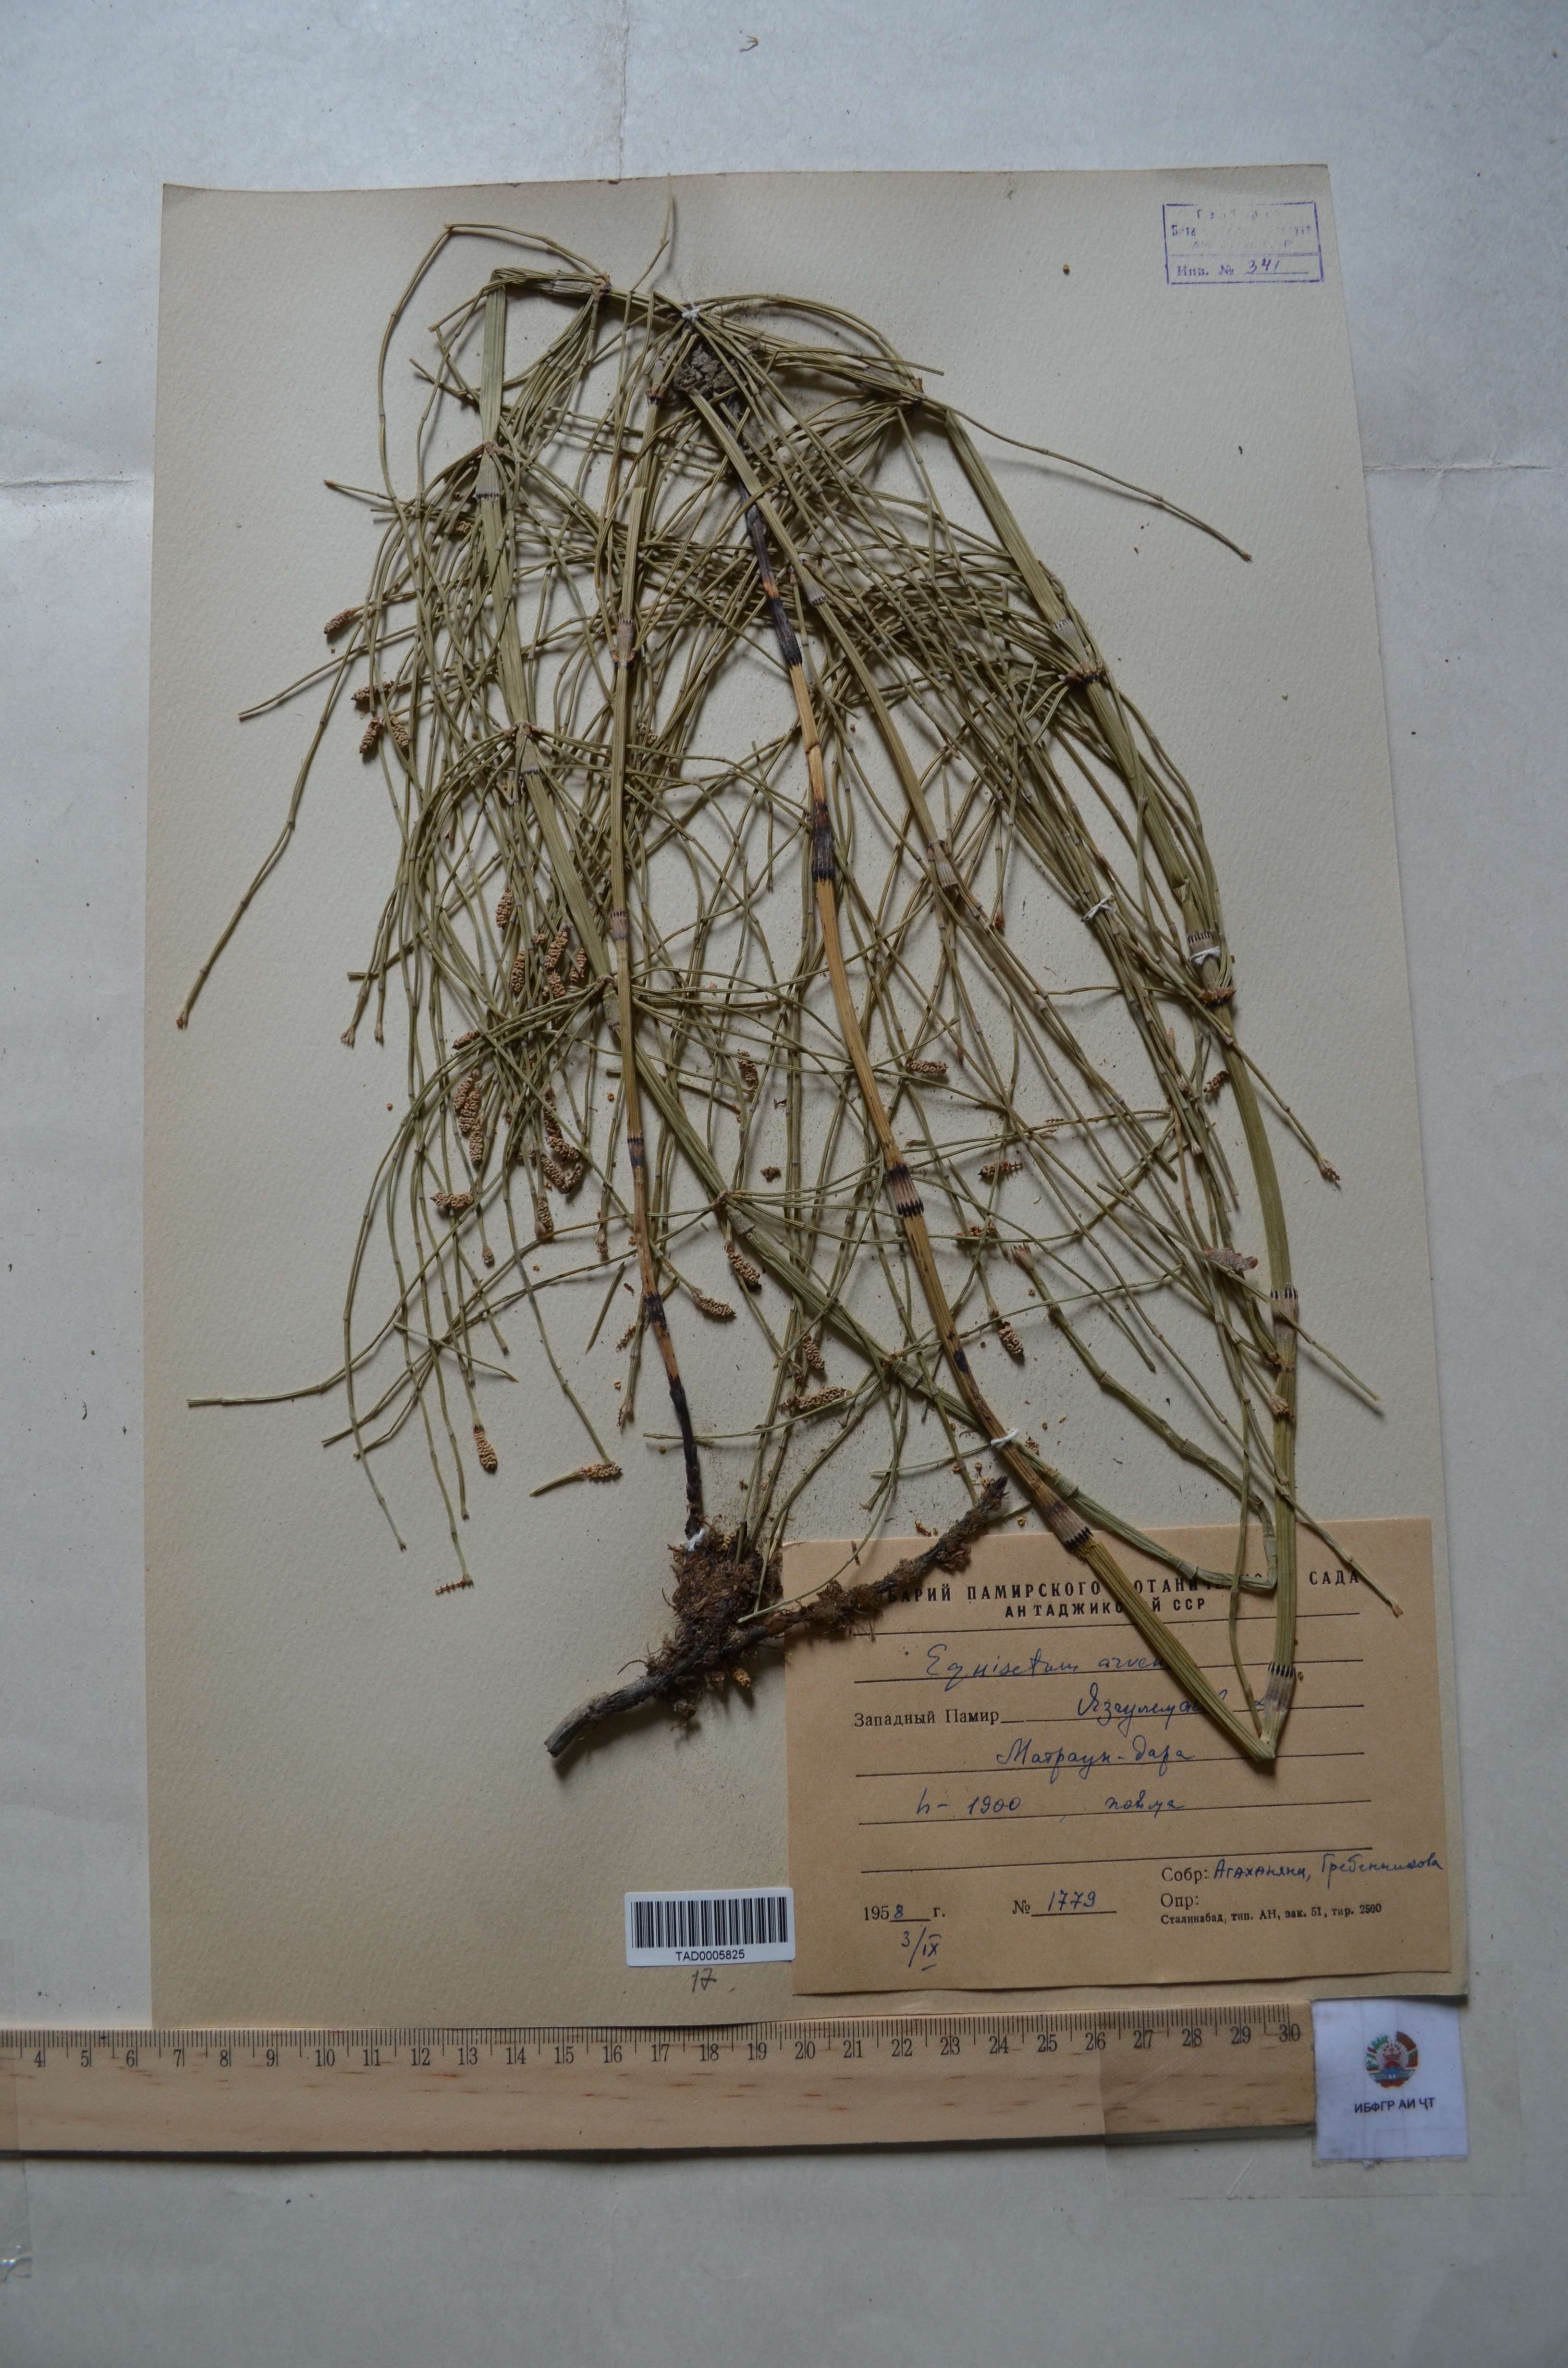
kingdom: Plantae
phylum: Tracheophyta
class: Polypodiopsida
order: Equisetales
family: Equisetaceae
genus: Equisetum
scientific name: Equisetum arvense
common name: Field horsetail
